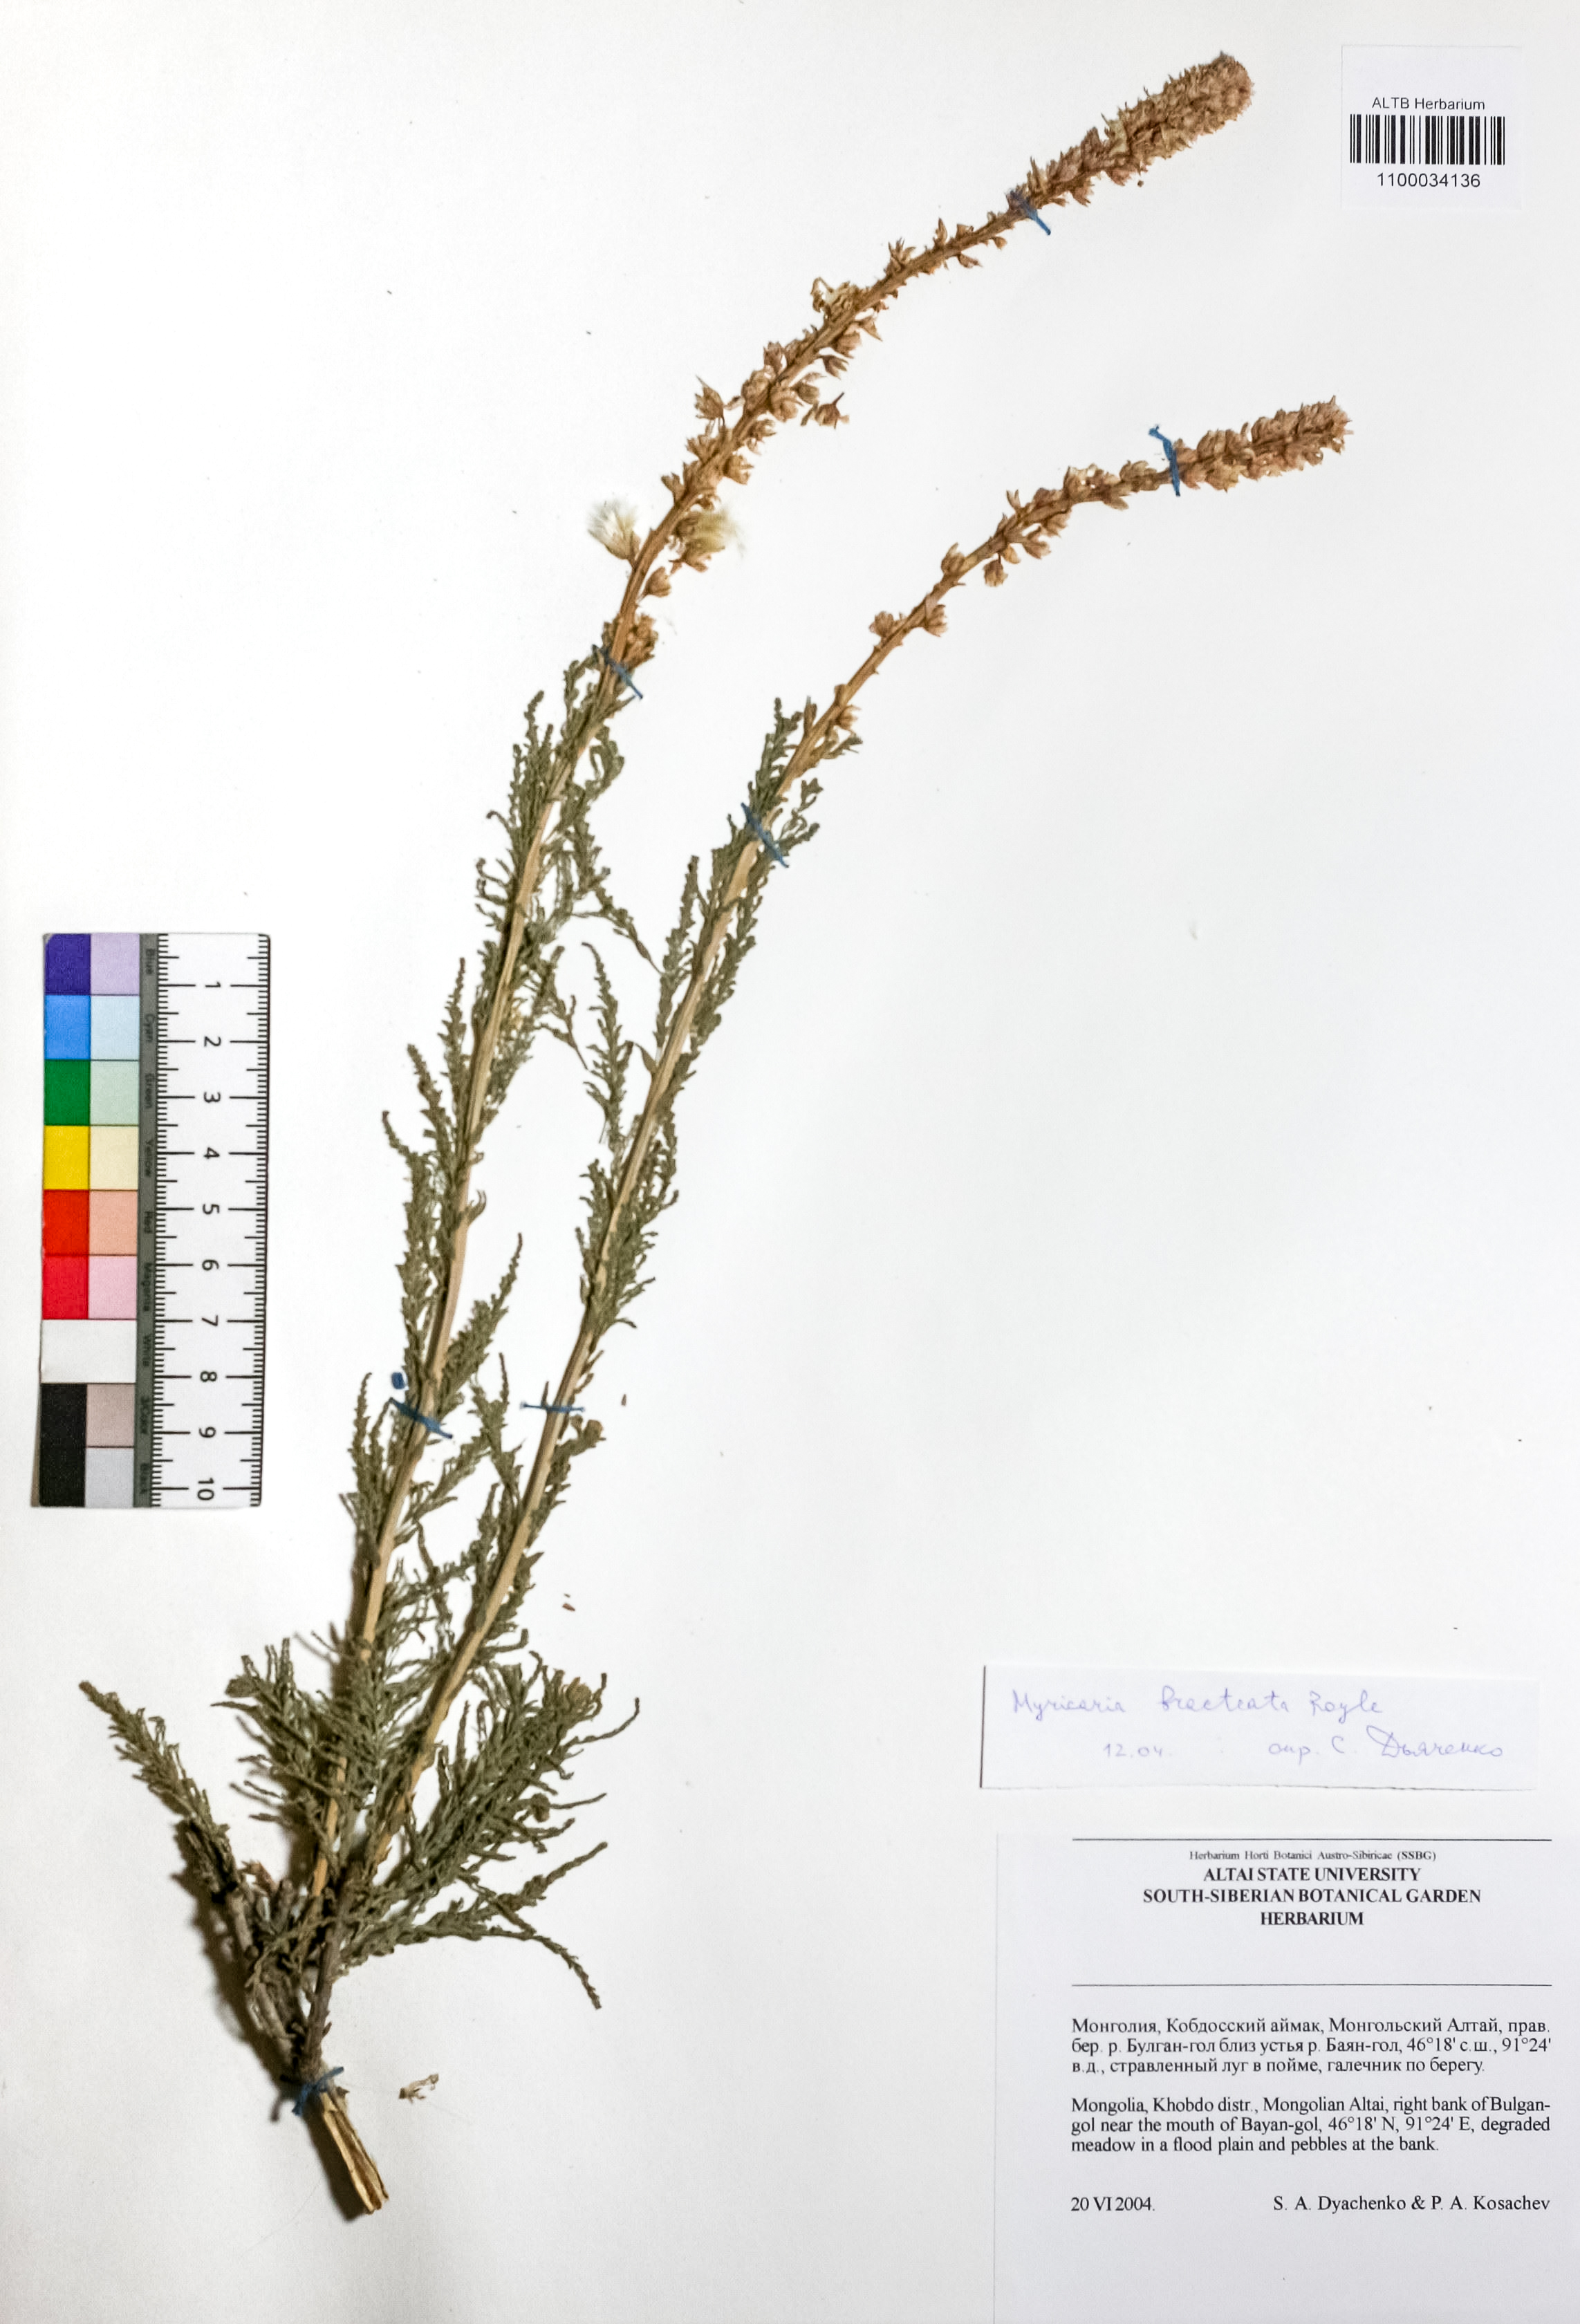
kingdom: Plantae
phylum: Tracheophyta
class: Magnoliopsida
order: Caryophyllales
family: Tamaricaceae
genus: Myricaria
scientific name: Myricaria bracteata
